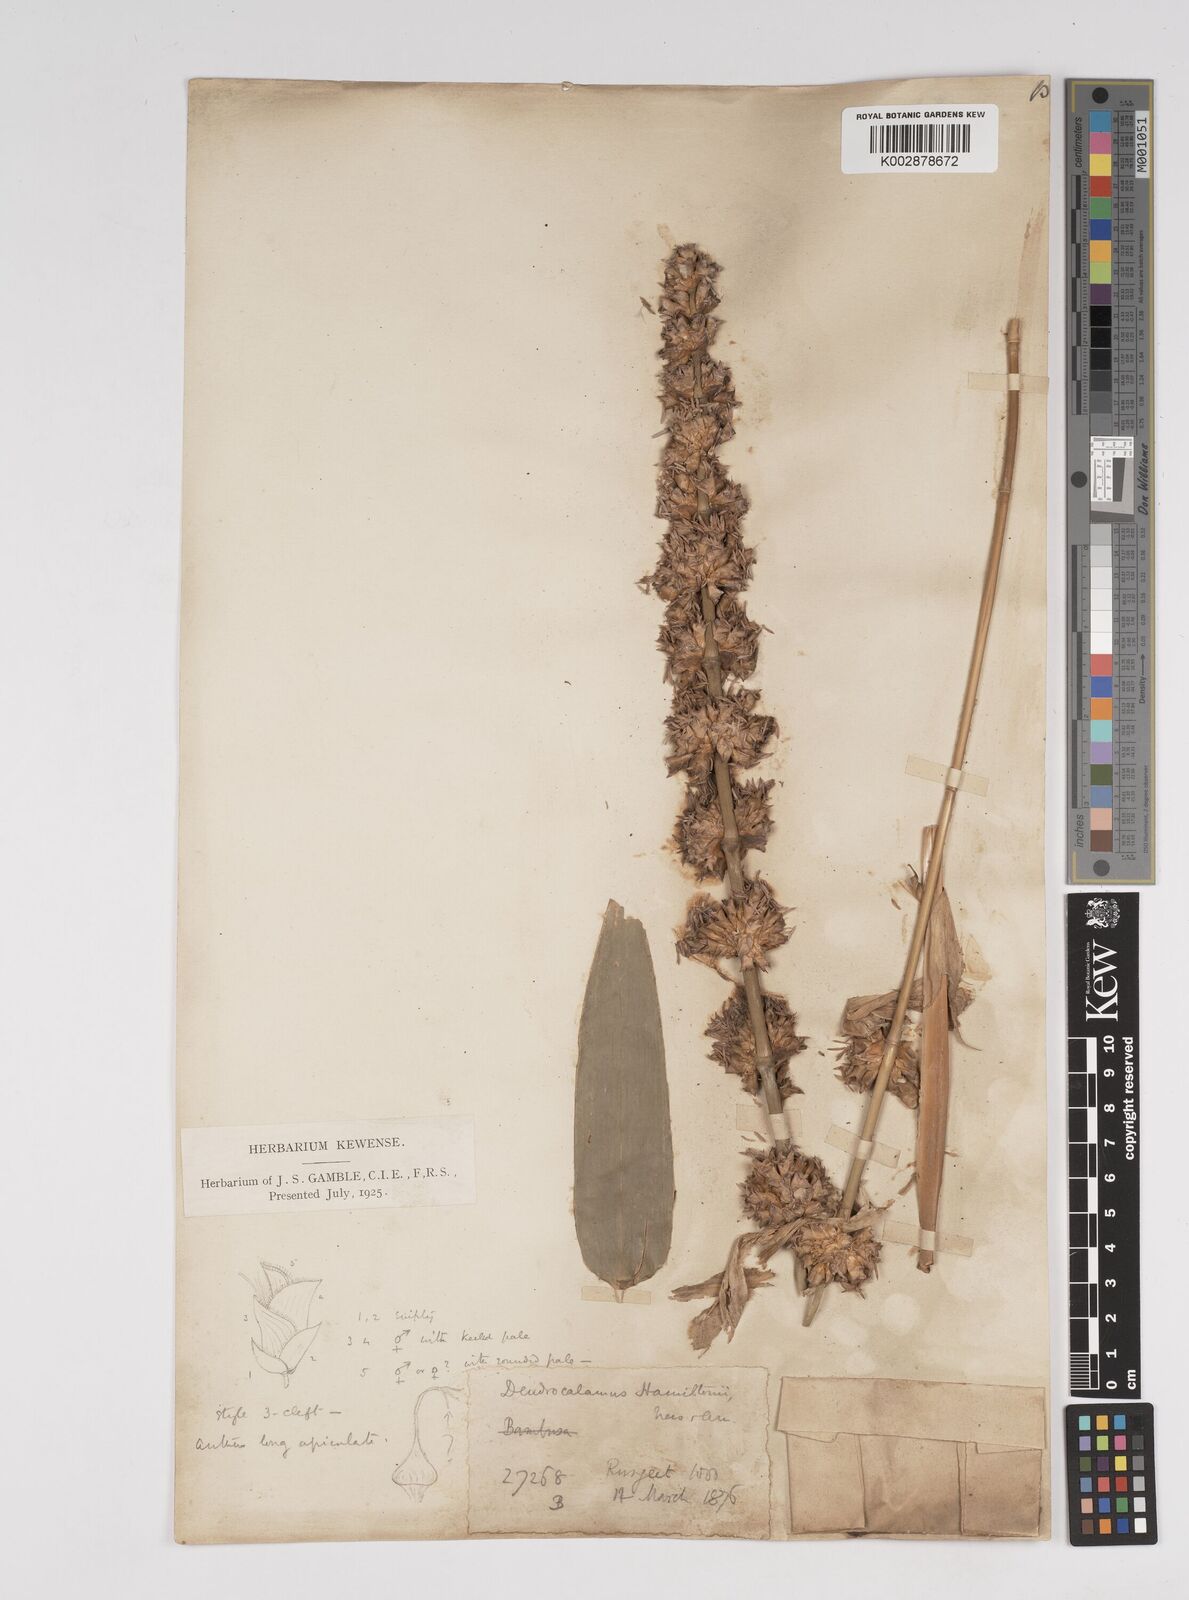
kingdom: Plantae
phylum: Tracheophyta
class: Liliopsida
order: Poales
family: Poaceae
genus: Dendrocalamus
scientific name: Dendrocalamus hamiltonii
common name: Tama bamboo
